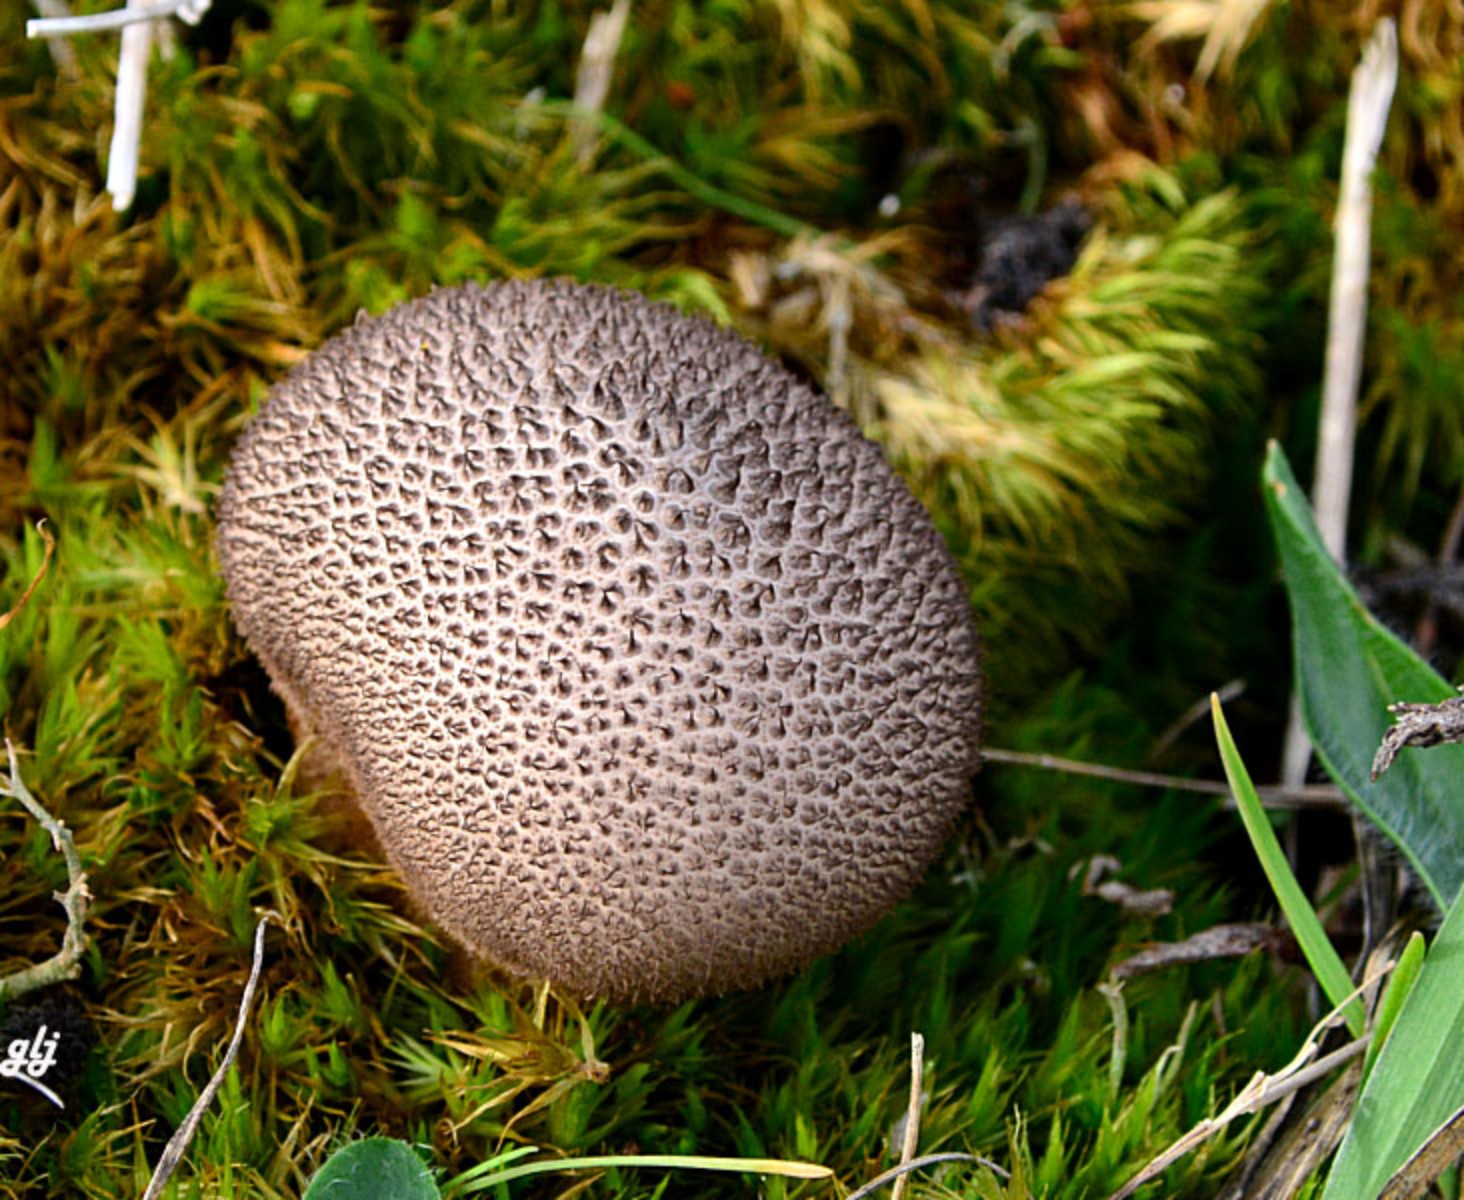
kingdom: Fungi
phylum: Basidiomycota
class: Agaricomycetes
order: Agaricales
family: Lycoperdaceae
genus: Lycoperdon
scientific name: Lycoperdon nigrescens
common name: sortagtig støvbold
